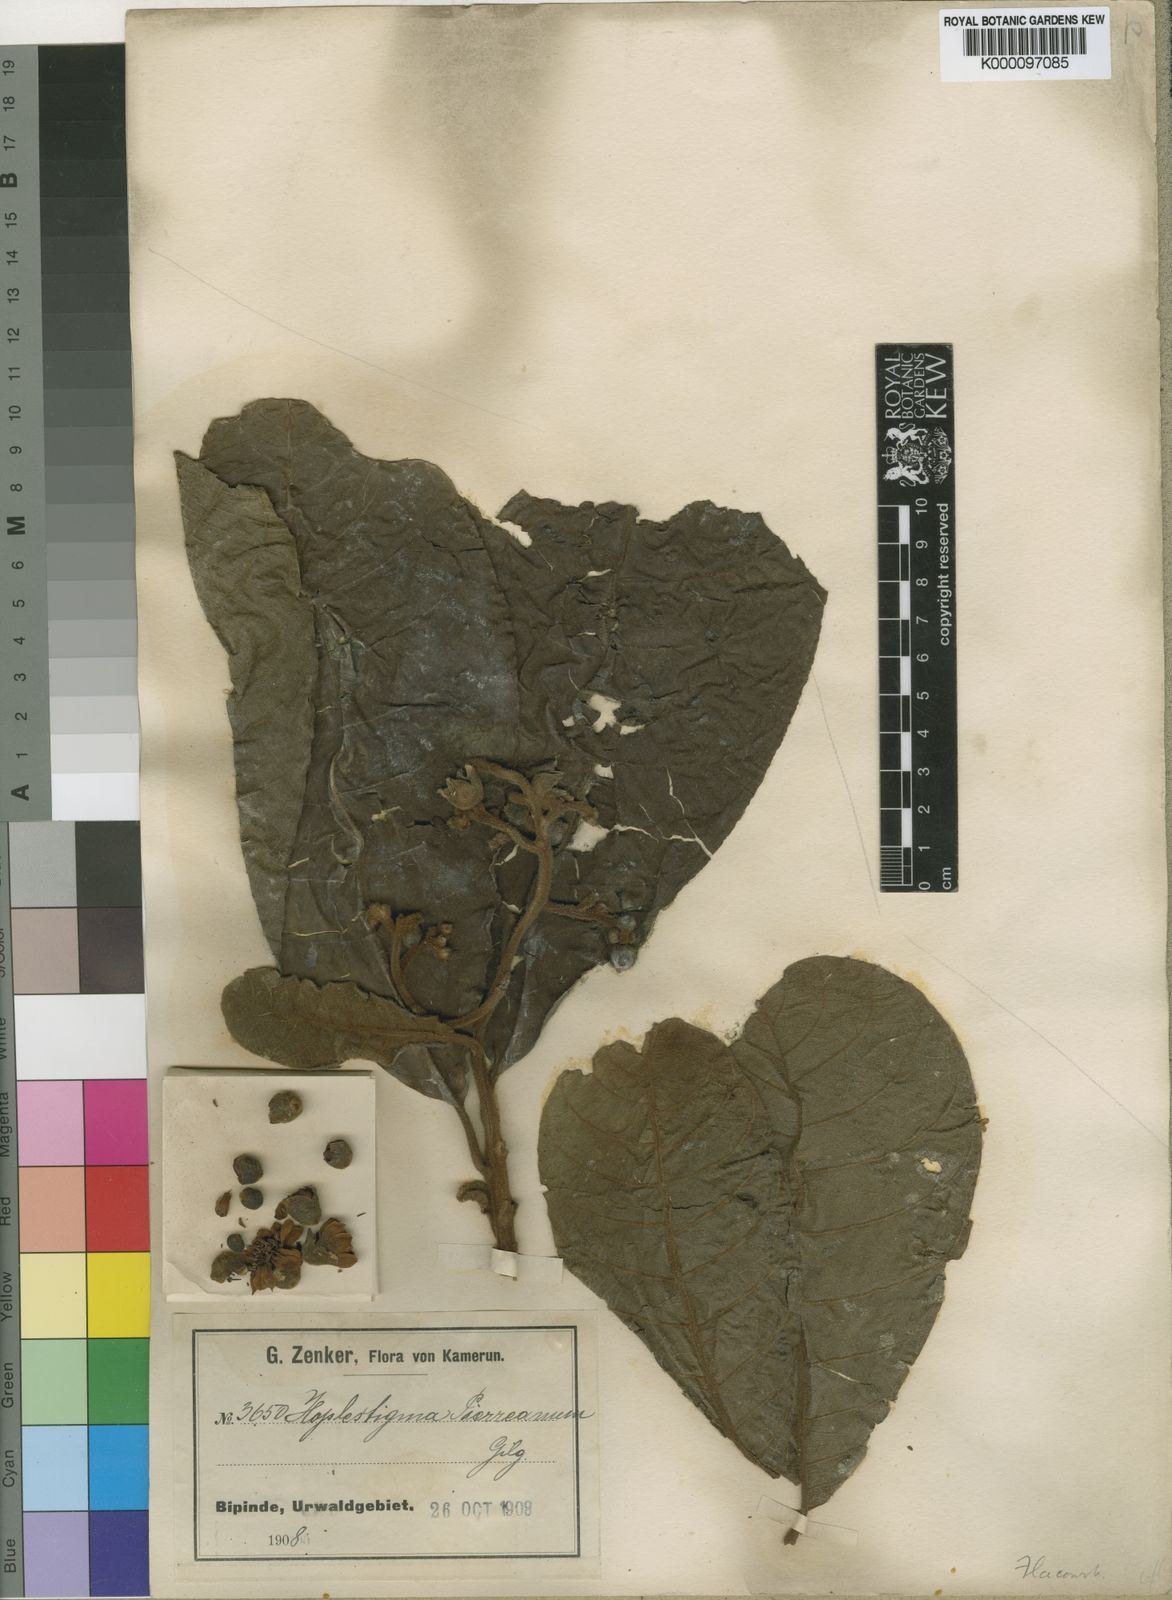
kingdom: Plantae
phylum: Tracheophyta
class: Magnoliopsida
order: Boraginales
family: Hoplestigmataceae
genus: Hoplestigma
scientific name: Hoplestigma pierreanum
